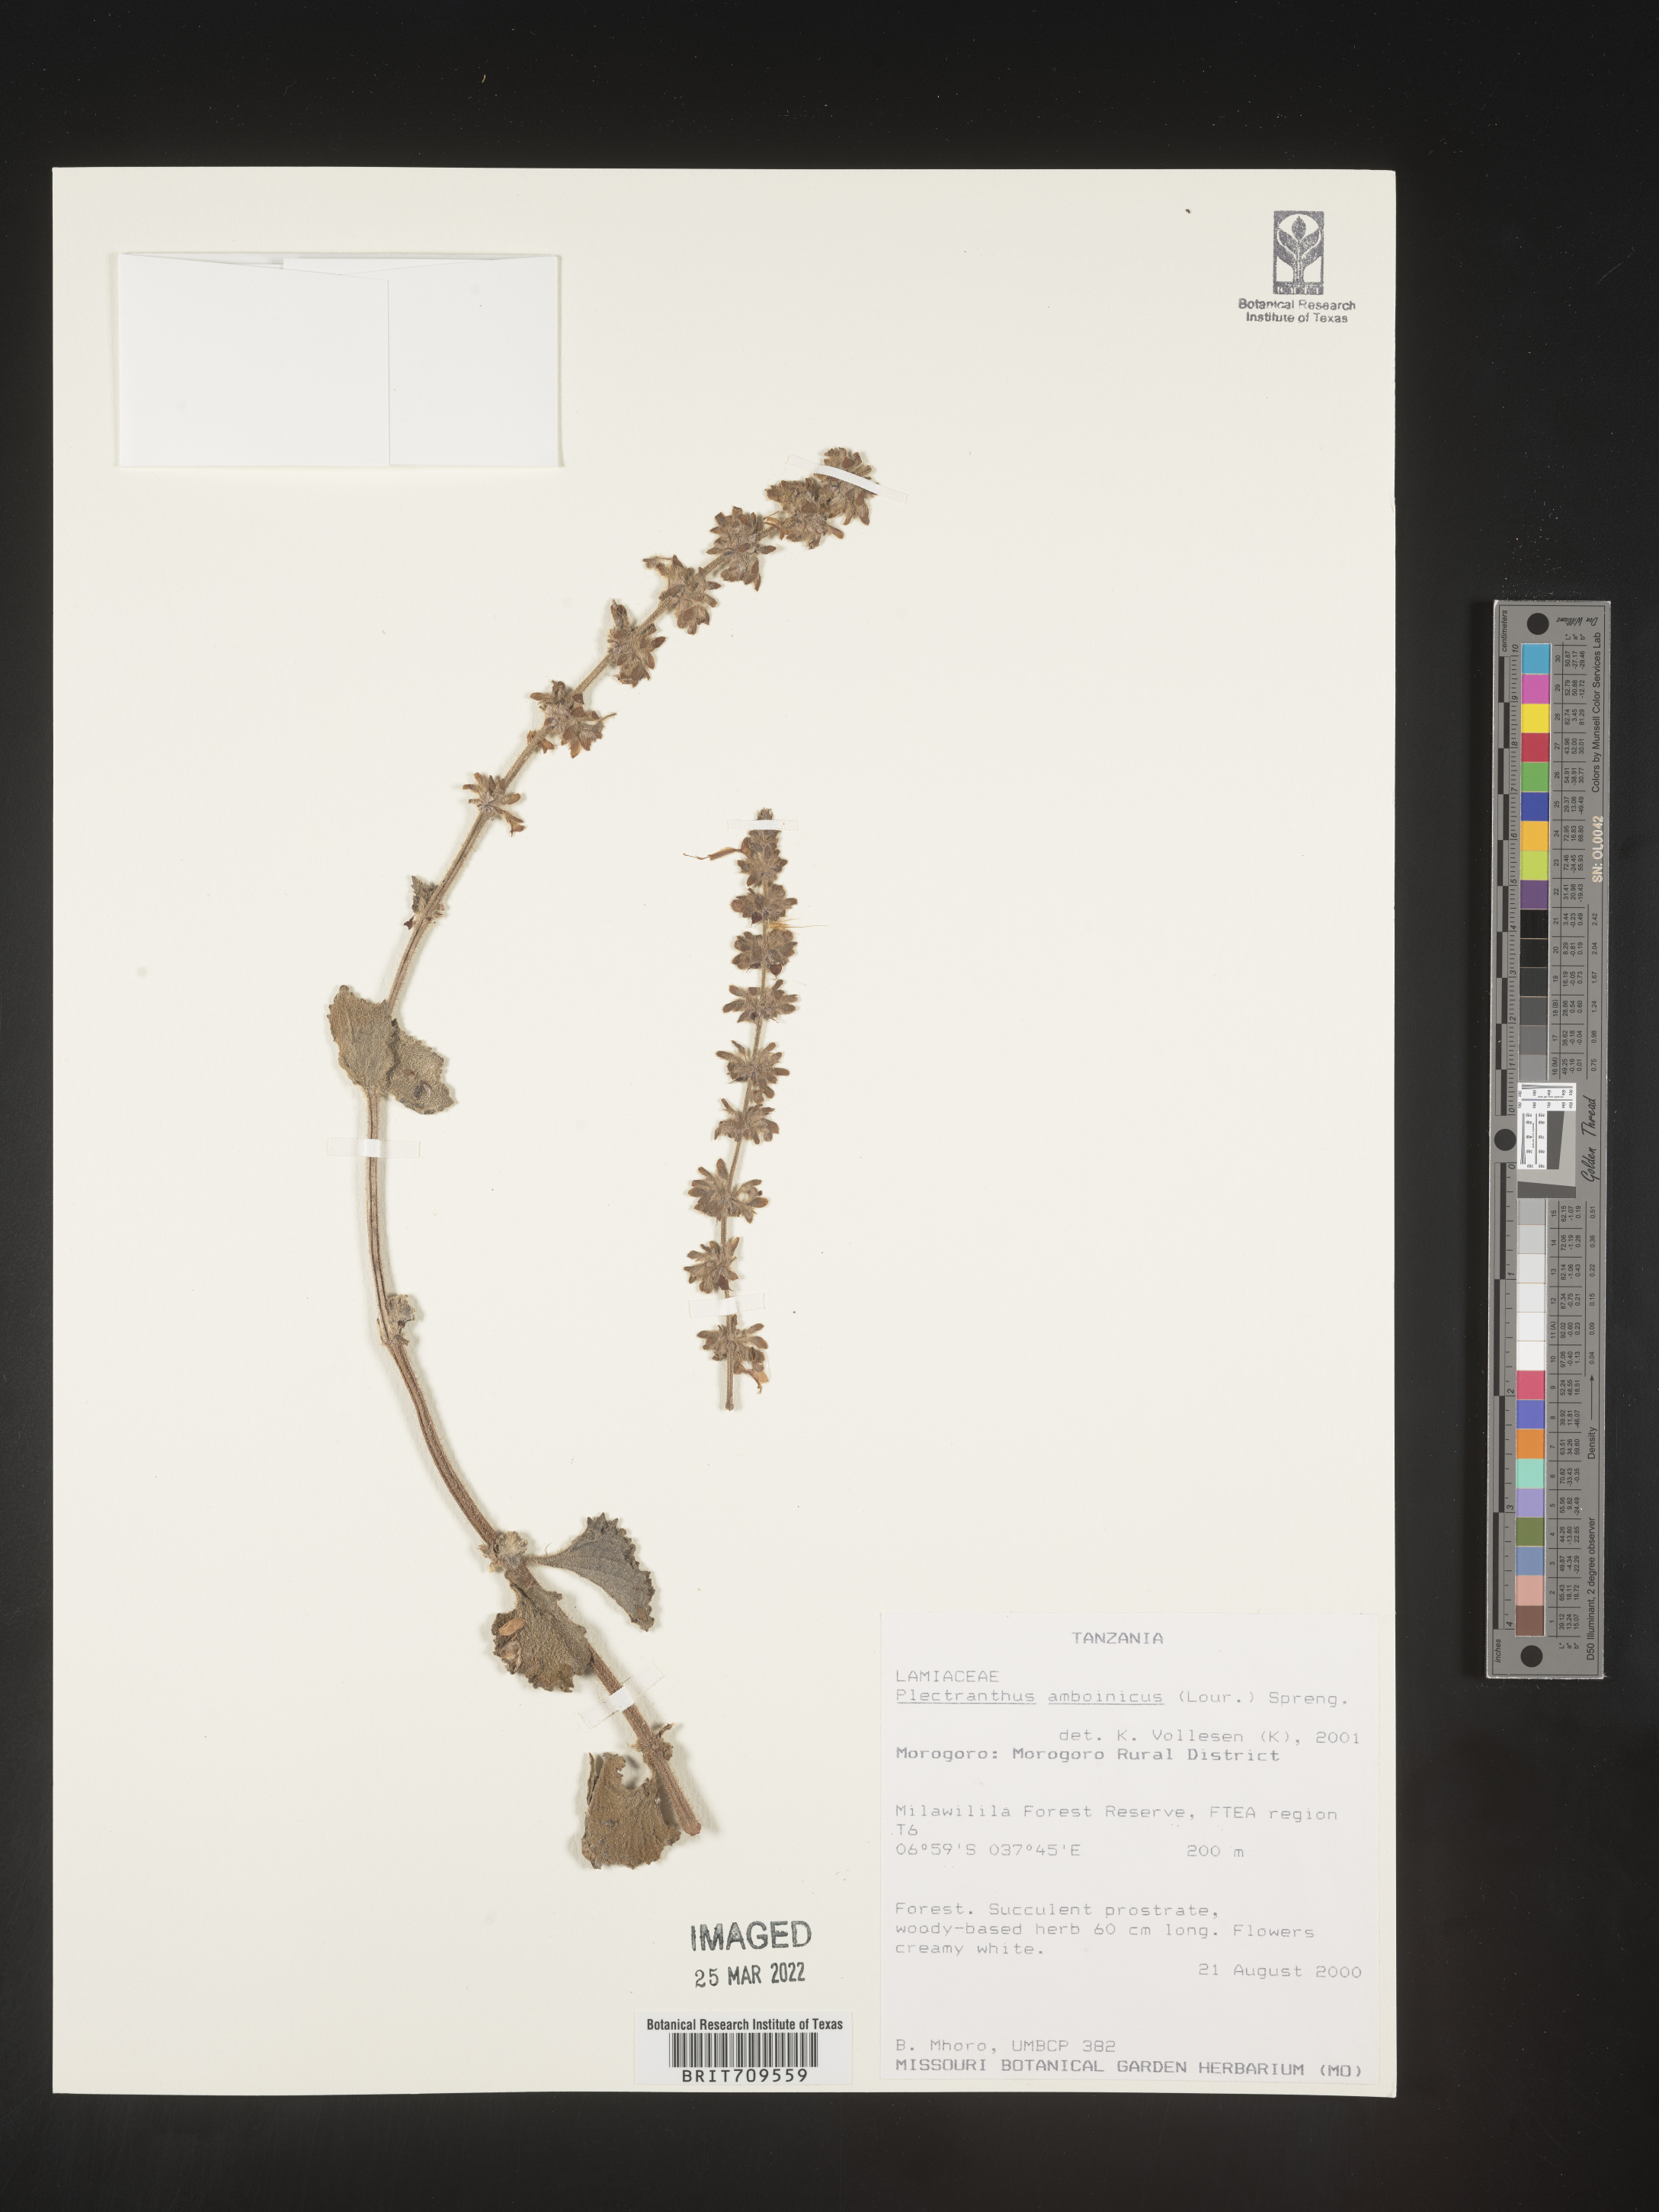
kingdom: Plantae
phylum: Tracheophyta
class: Magnoliopsida
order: Lamiales
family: Lamiaceae
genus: Plectranthus
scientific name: Plectranthus
